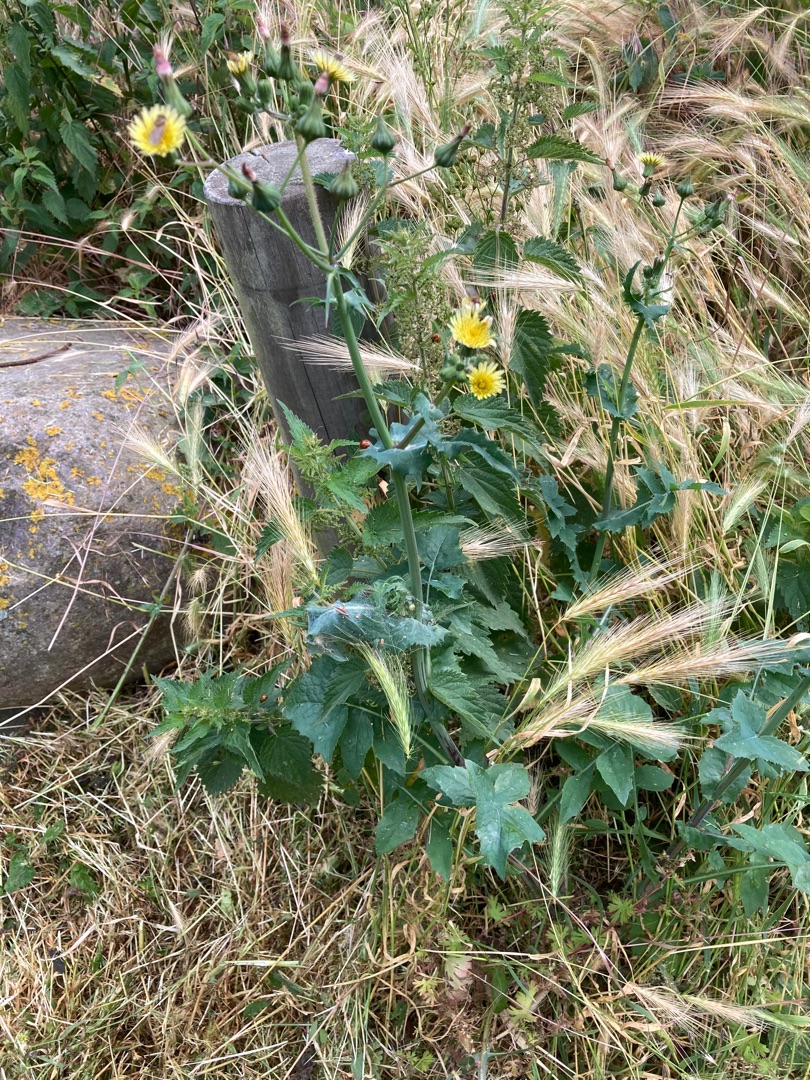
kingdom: Plantae
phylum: Tracheophyta
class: Magnoliopsida
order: Asterales
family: Asteraceae
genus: Sonchus
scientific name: Sonchus oleraceus
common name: Almindelig svinemælk
